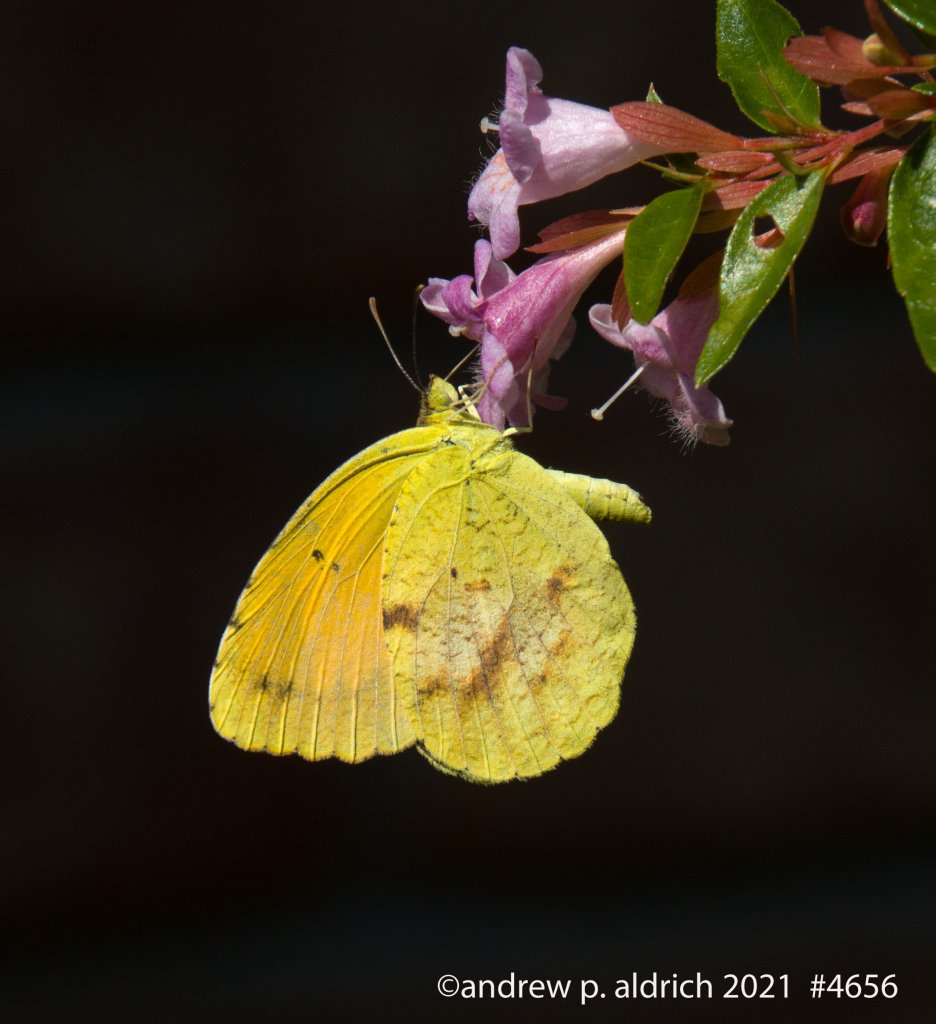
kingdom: Animalia
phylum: Arthropoda
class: Insecta
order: Lepidoptera
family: Pieridae
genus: Abaeis
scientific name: Abaeis nicippe
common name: Sleepy Orange
